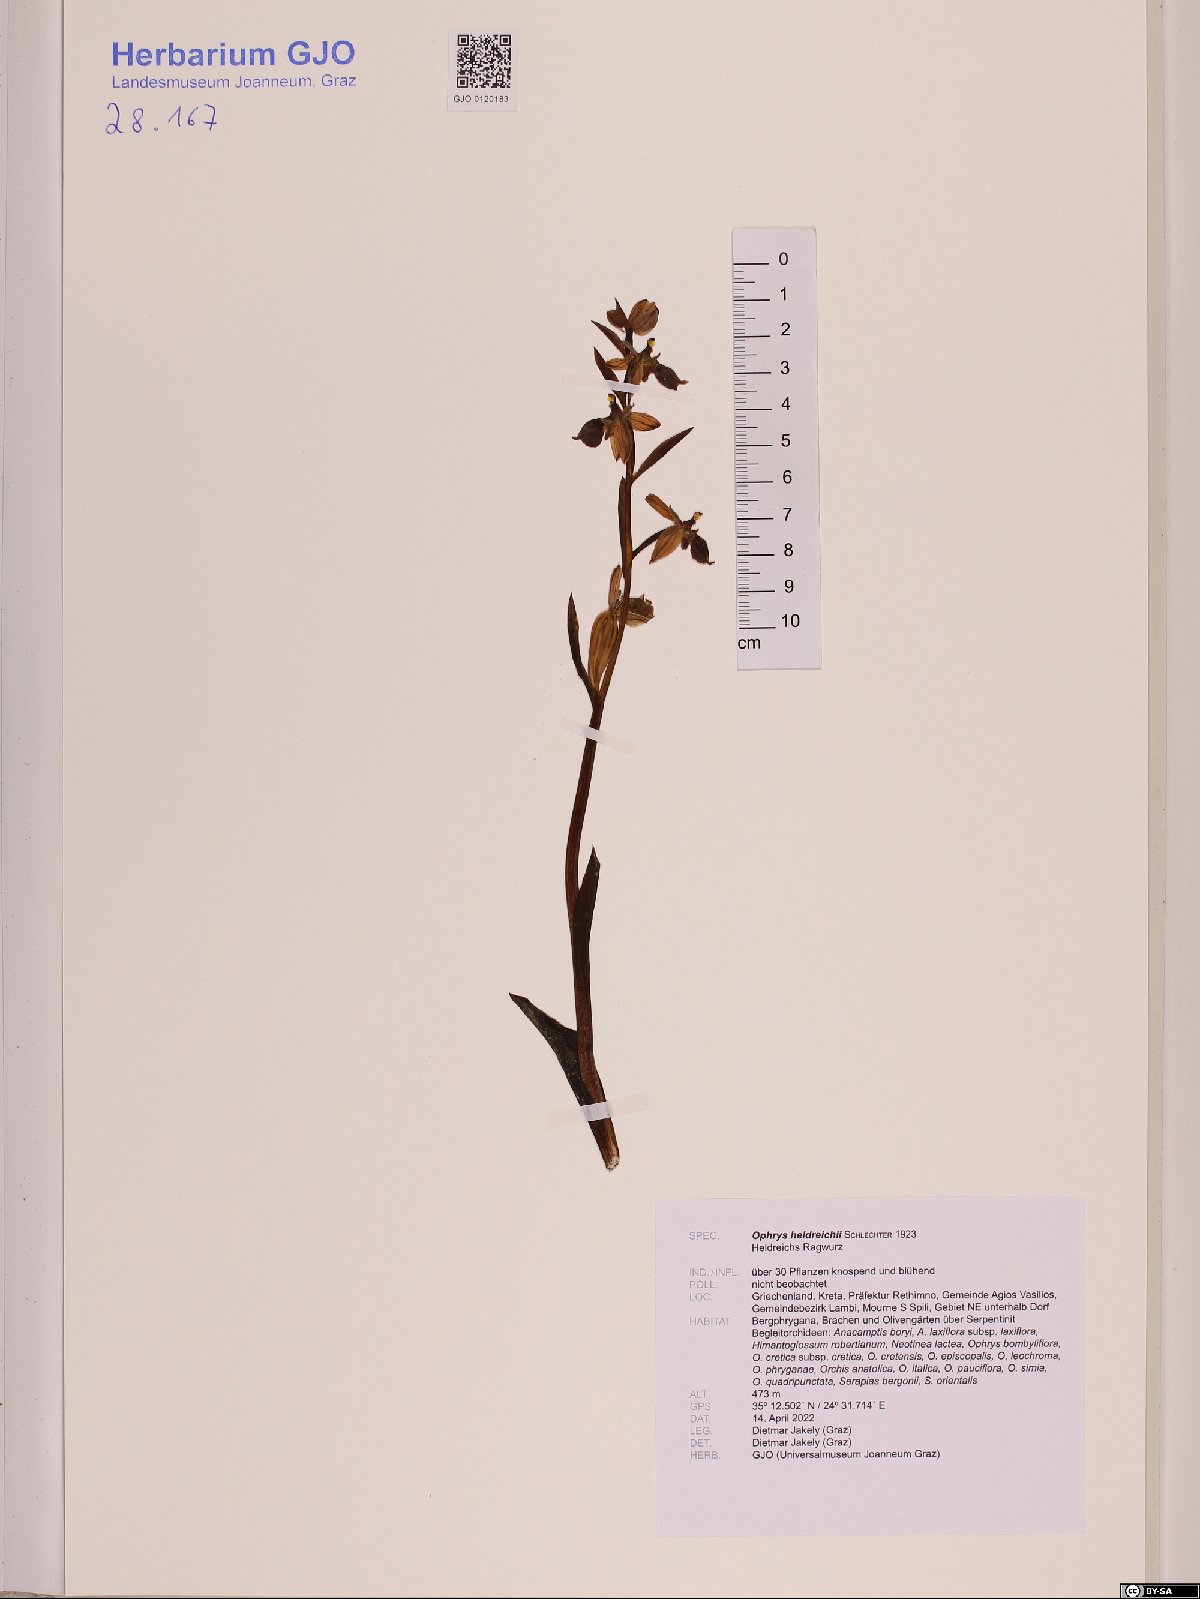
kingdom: Plantae
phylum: Tracheophyta
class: Liliopsida
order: Asparagales
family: Orchidaceae
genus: Ophrys
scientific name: Ophrys scolopax
